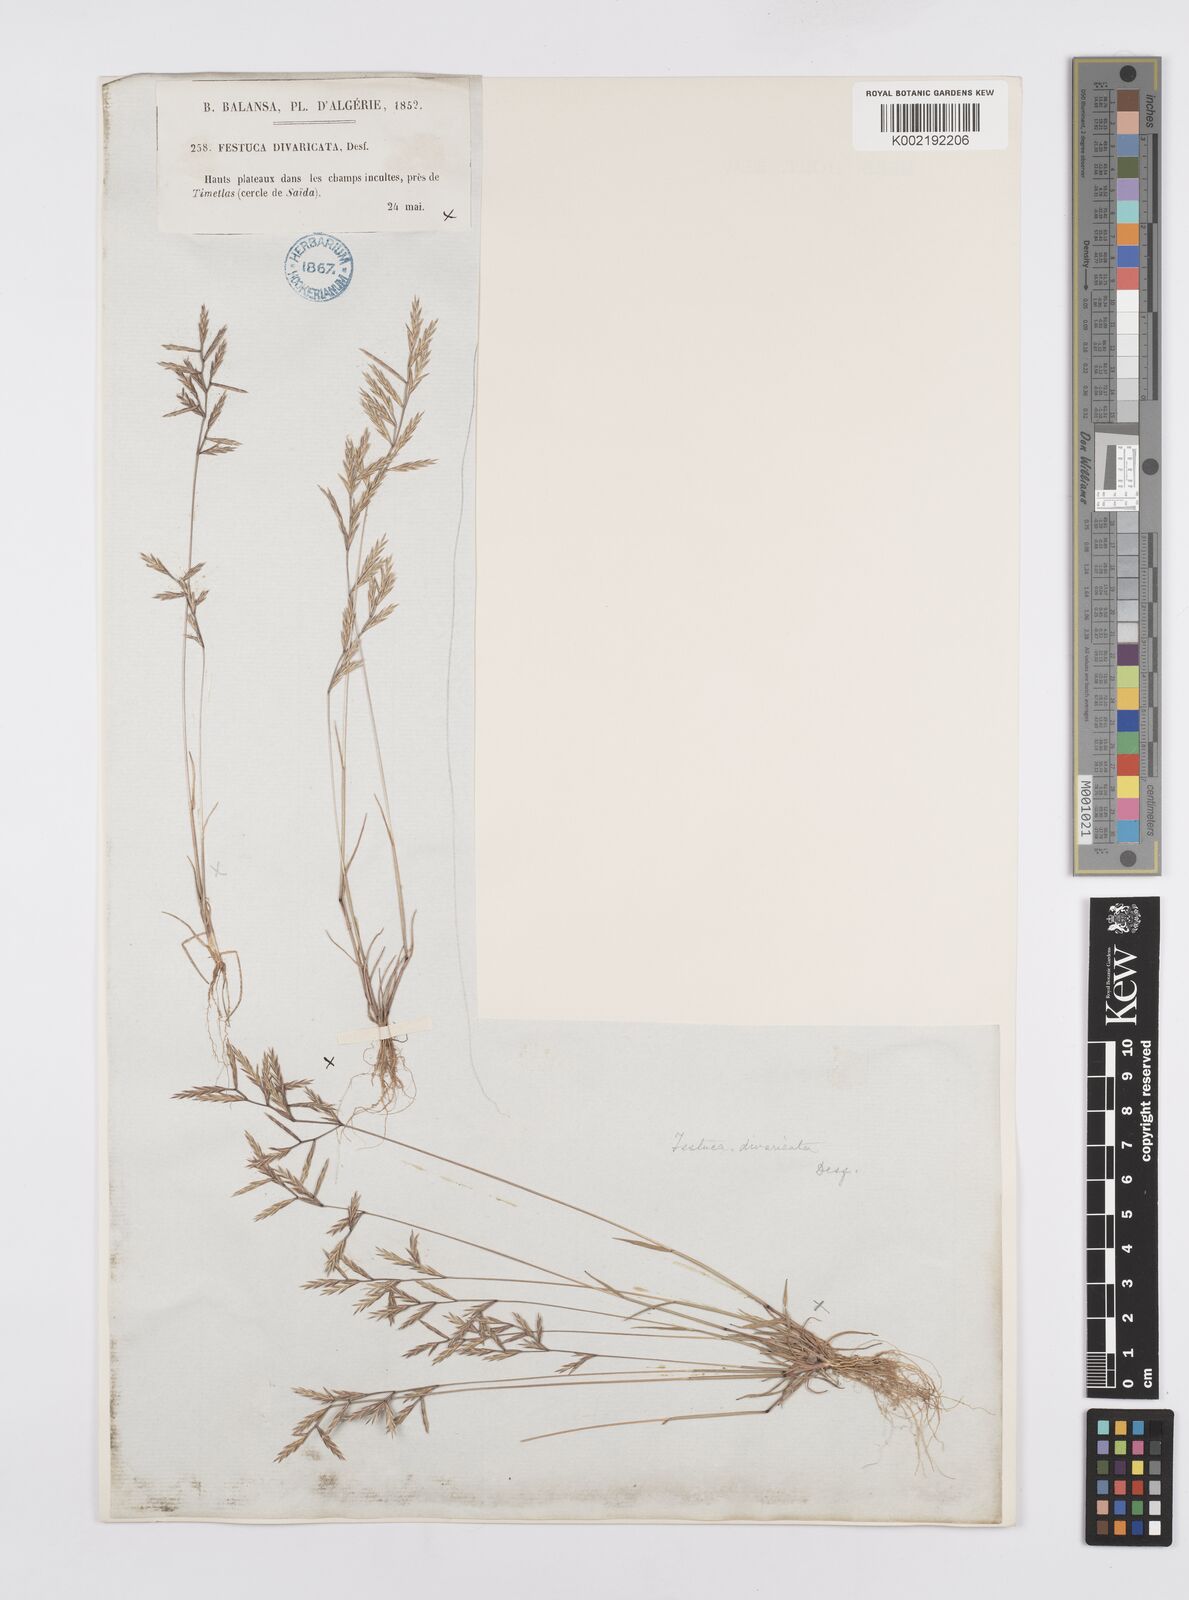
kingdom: Plantae
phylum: Tracheophyta
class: Liliopsida
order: Poales
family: Poaceae
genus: Cutandia
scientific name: Cutandia divaricata
